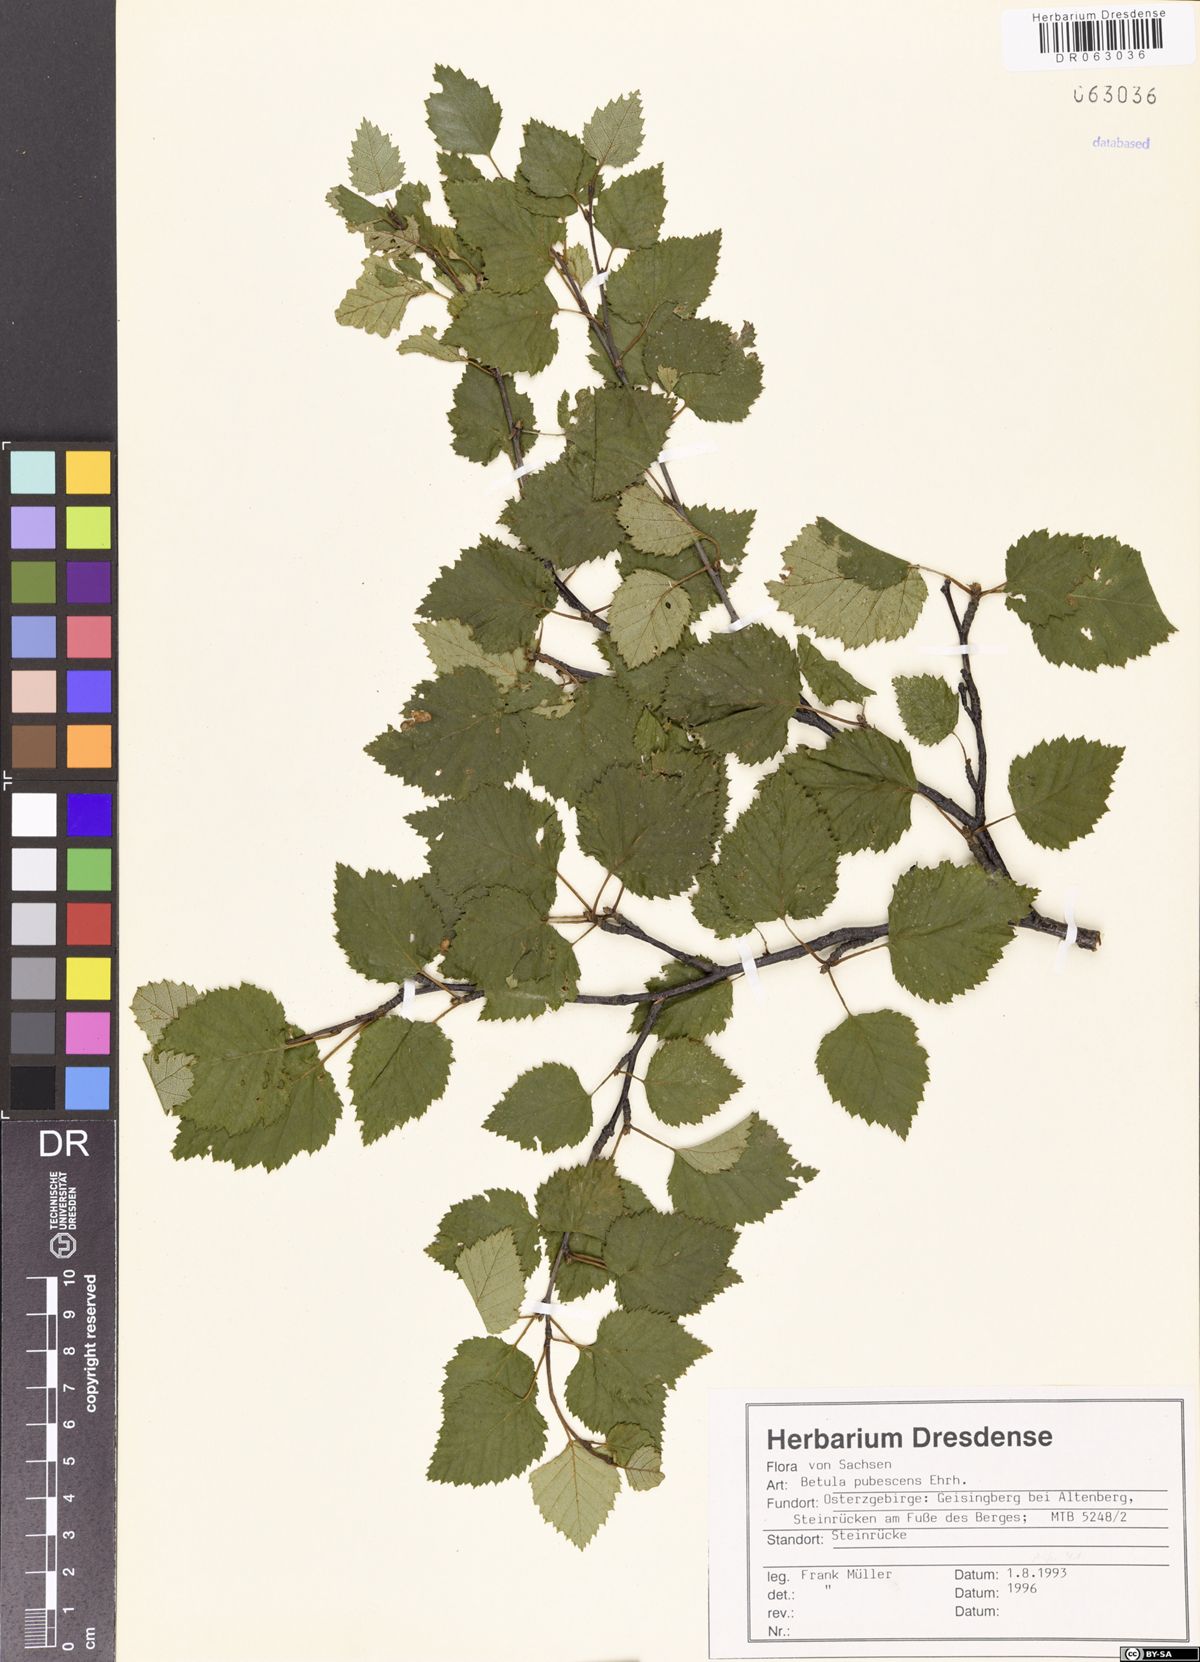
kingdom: Plantae
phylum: Tracheophyta
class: Magnoliopsida
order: Fagales
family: Betulaceae
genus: Betula
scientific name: Betula pubescens
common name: Downy birch
